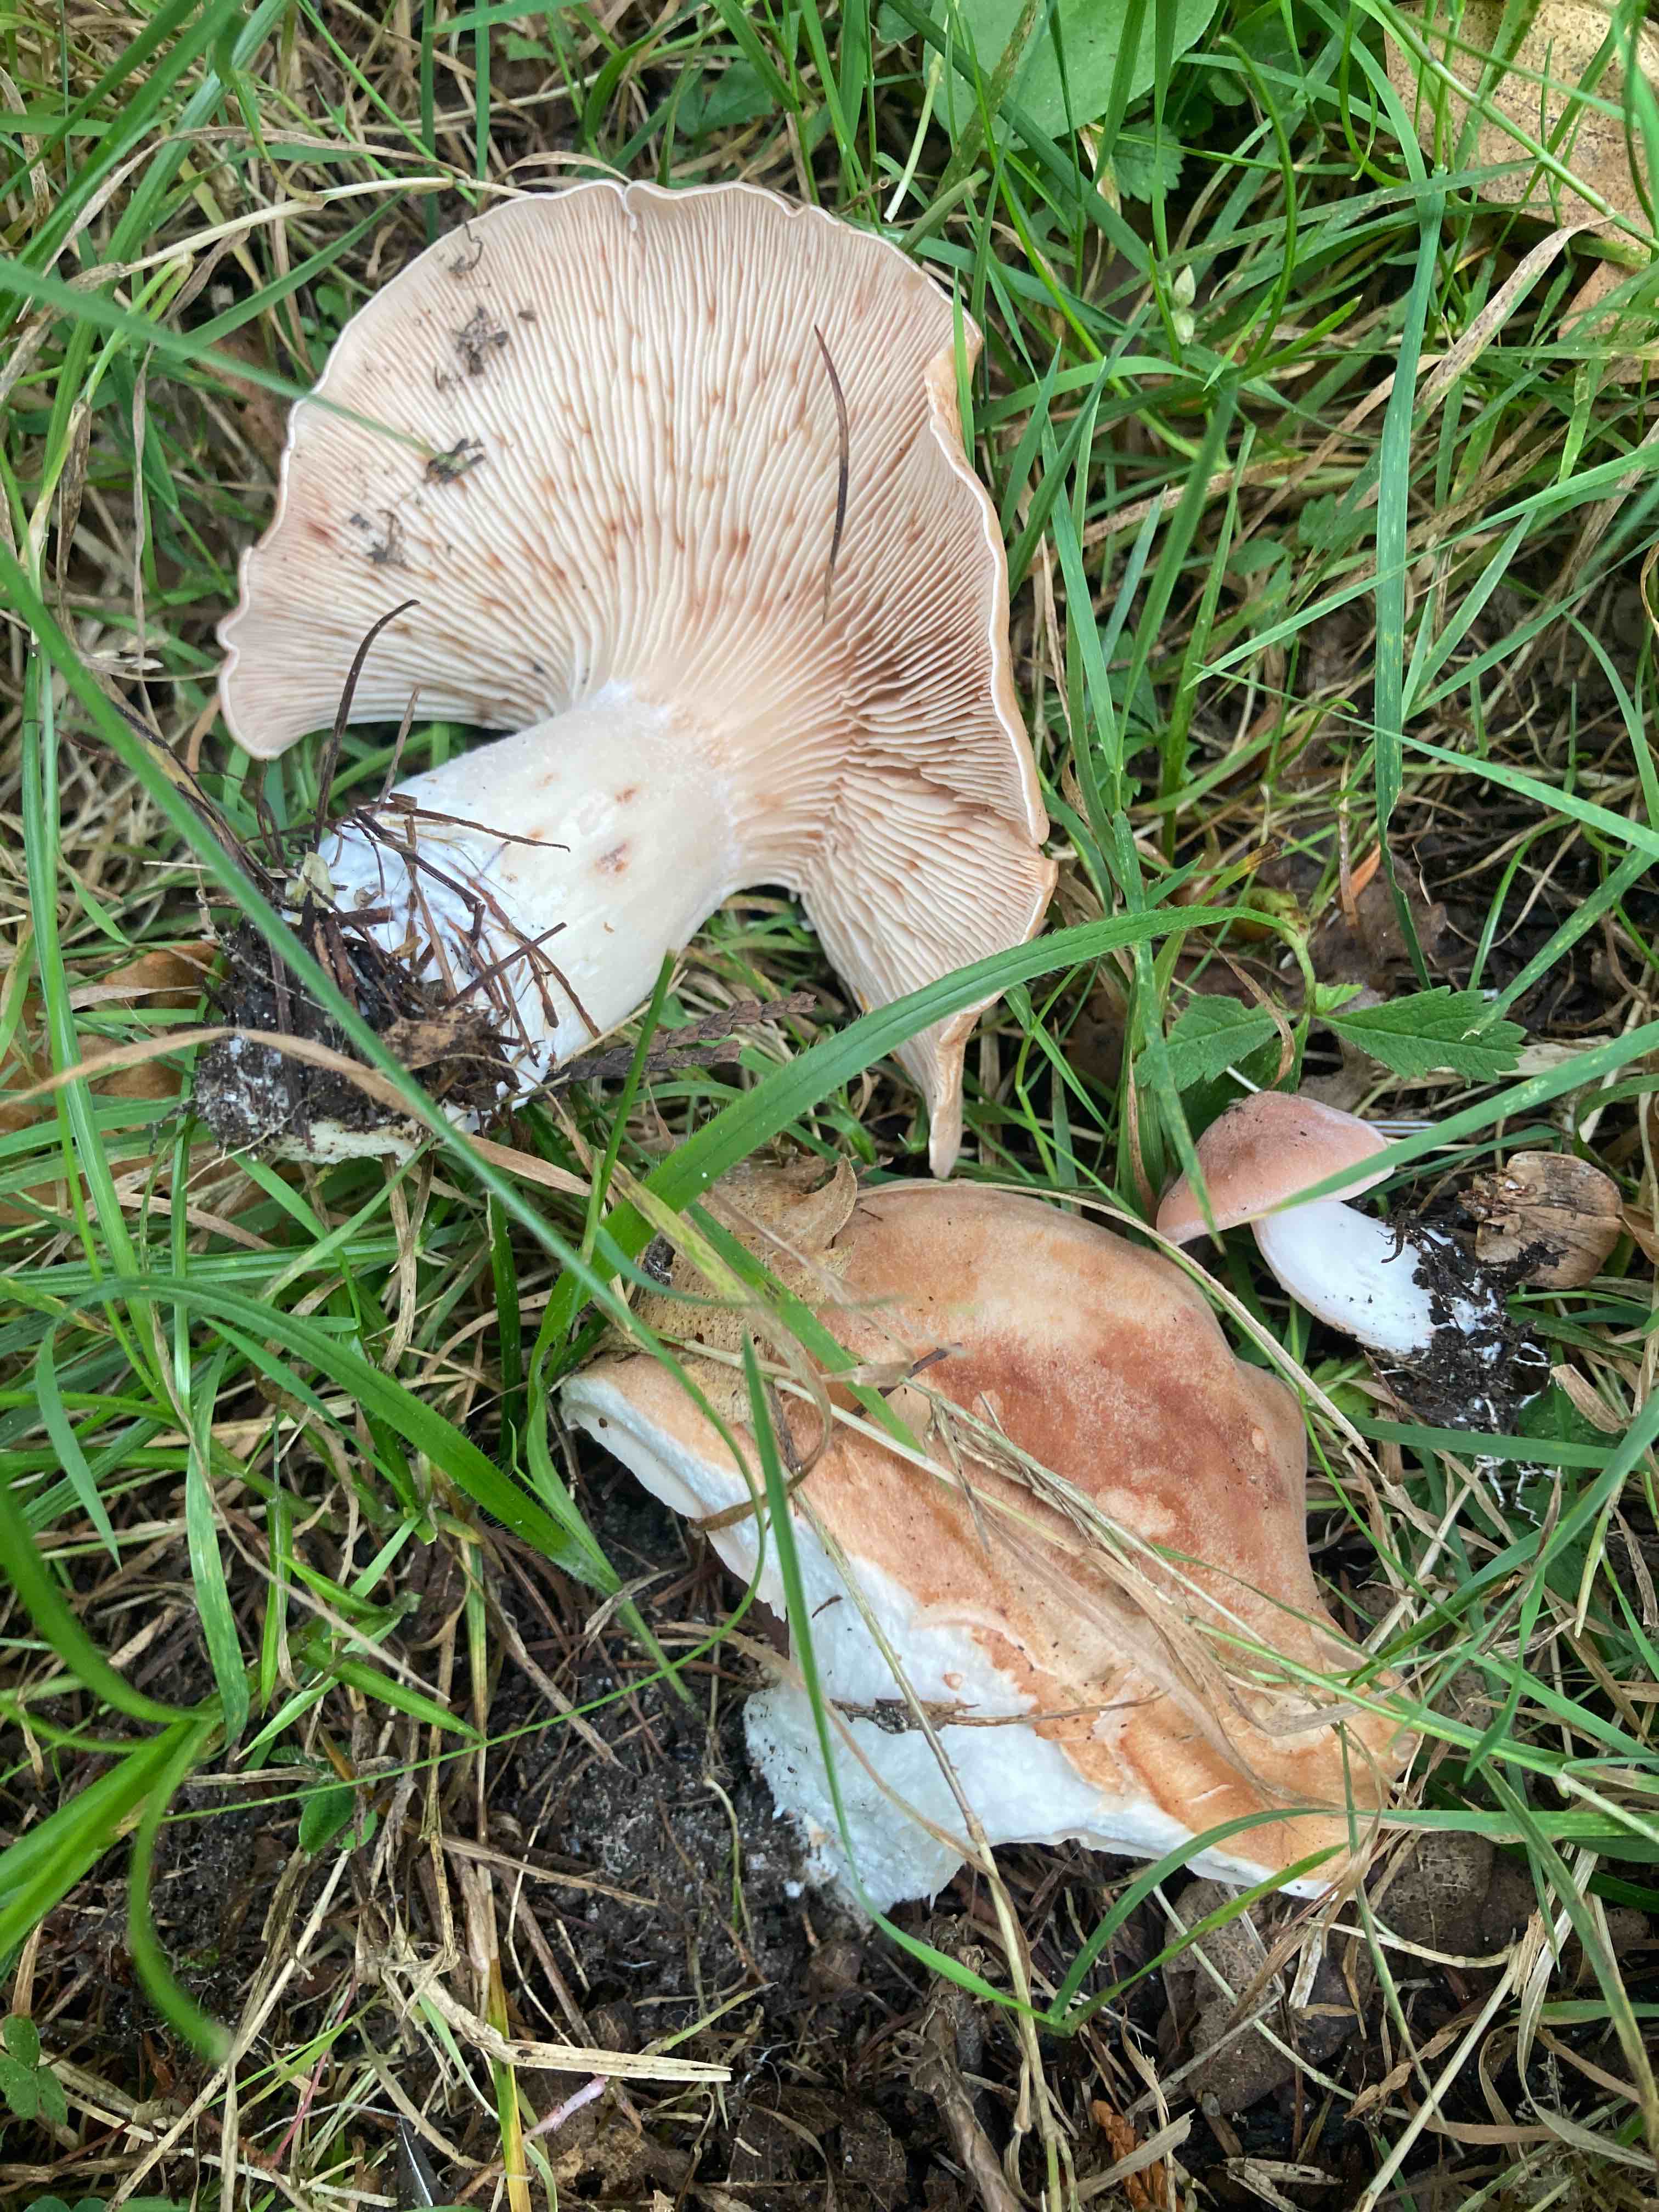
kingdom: Fungi
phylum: Basidiomycota
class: Agaricomycetes
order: Agaricales
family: Entolomataceae
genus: Clitopilus
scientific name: Clitopilus geminus
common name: kødfarvet troldhat
